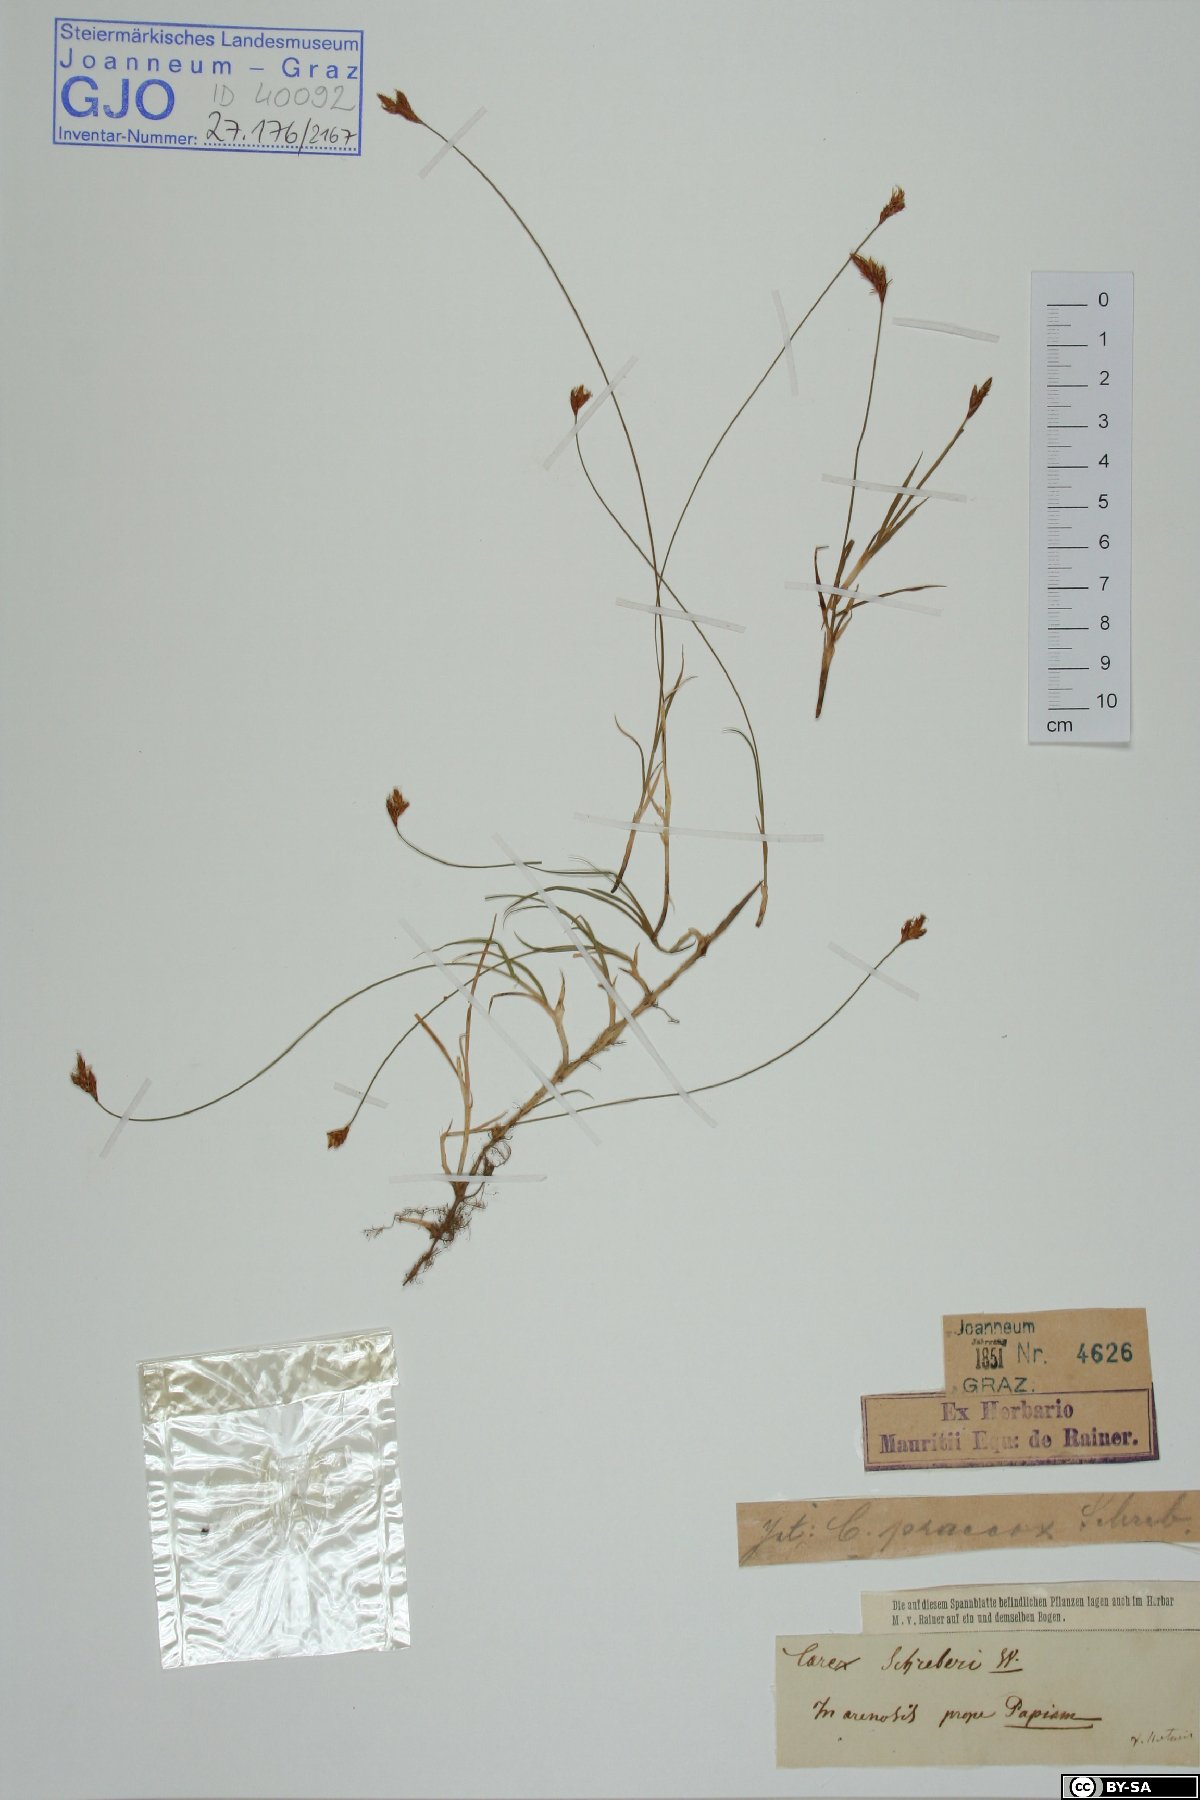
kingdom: Plantae
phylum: Tracheophyta
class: Liliopsida
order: Poales
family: Cyperaceae
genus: Carex
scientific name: Carex praecox
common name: Early sedge
